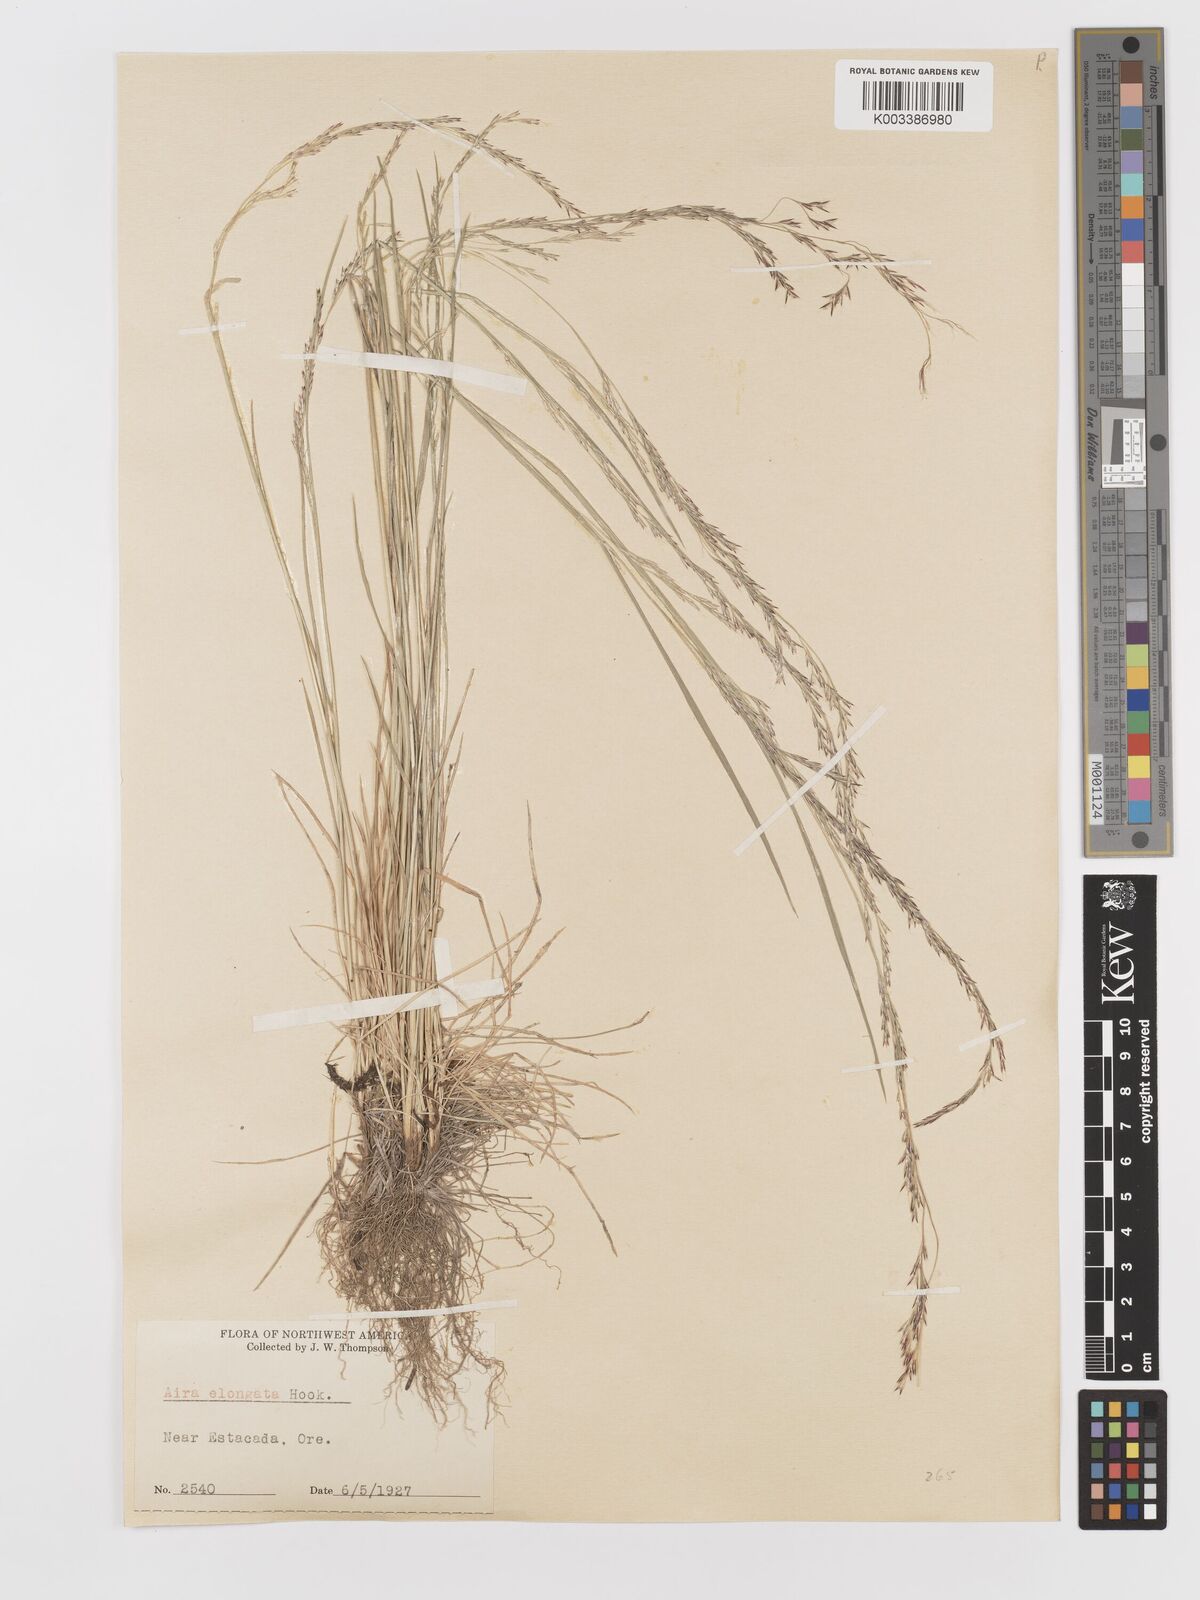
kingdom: Plantae
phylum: Tracheophyta
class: Liliopsida
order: Poales
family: Poaceae
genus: Deschampsia
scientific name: Deschampsia elongata
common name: Slender hairgrass
